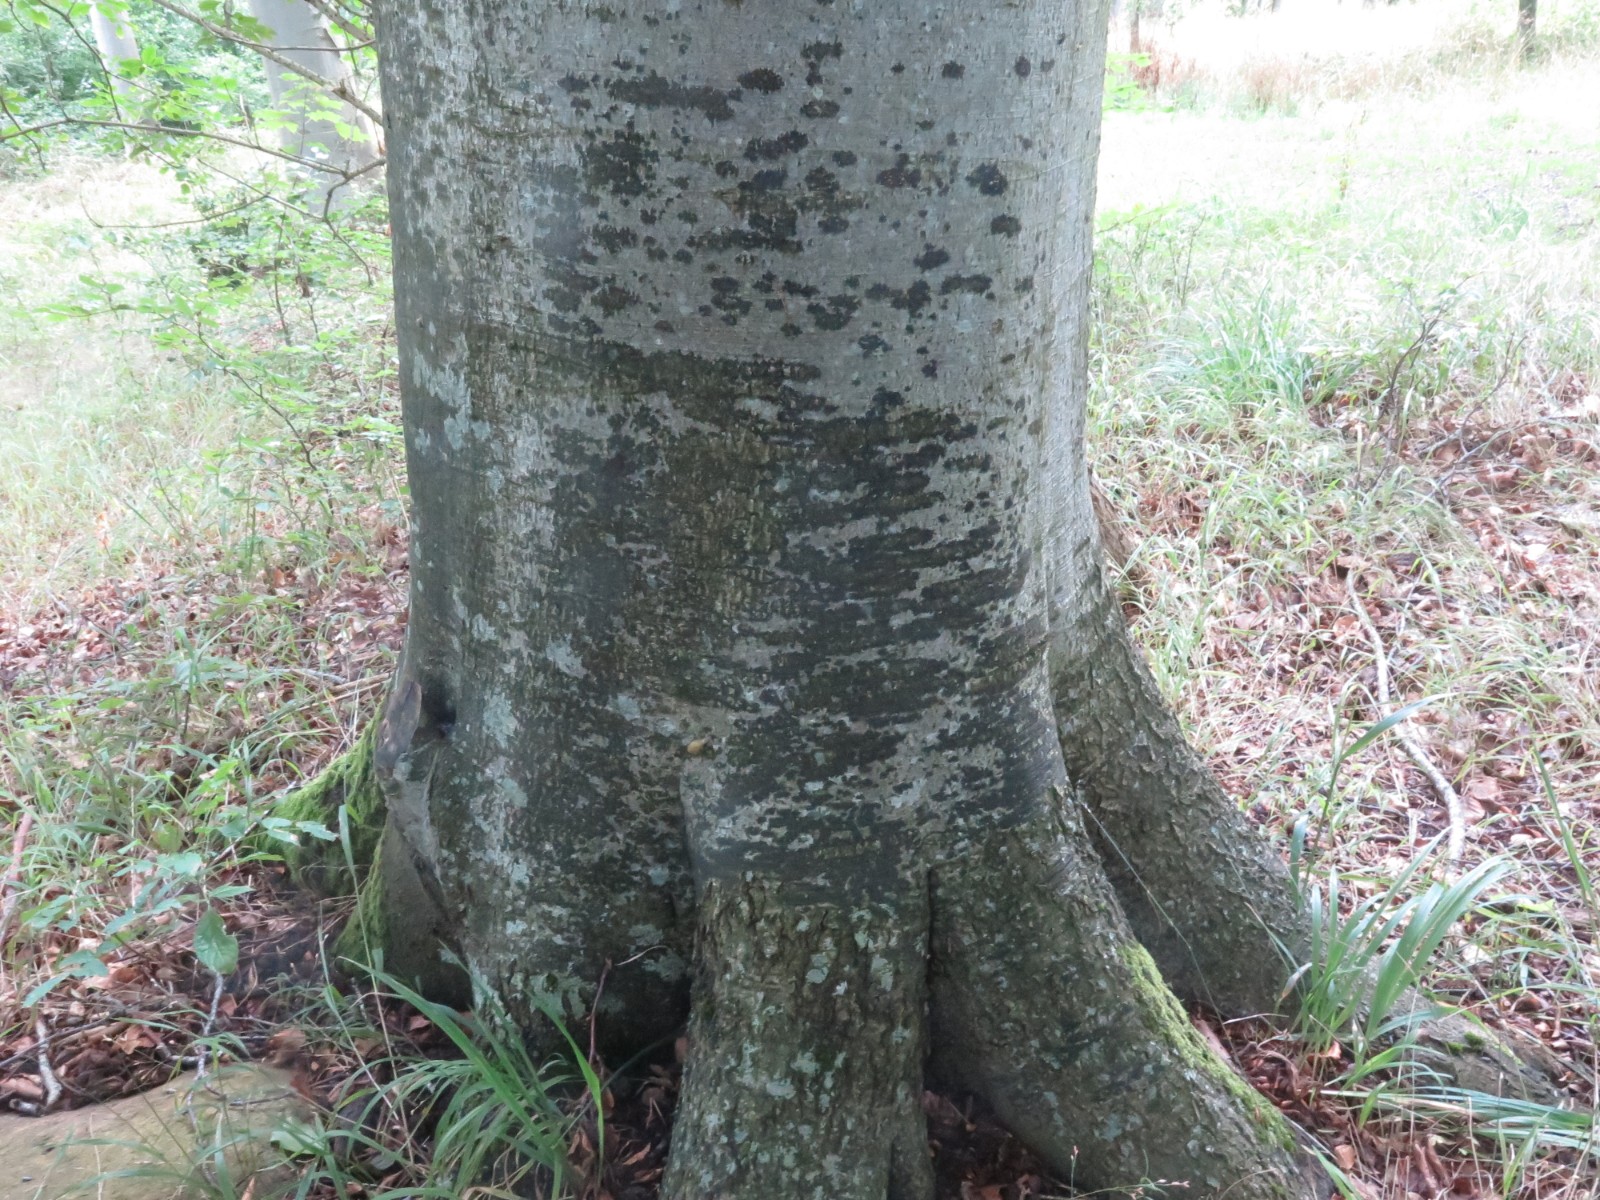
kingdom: Fungi
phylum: Ascomycota
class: Leotiomycetes
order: Rhytismatales
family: Ascodichaenaceae
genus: Ascodichaena
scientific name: Ascodichaena rugosa
